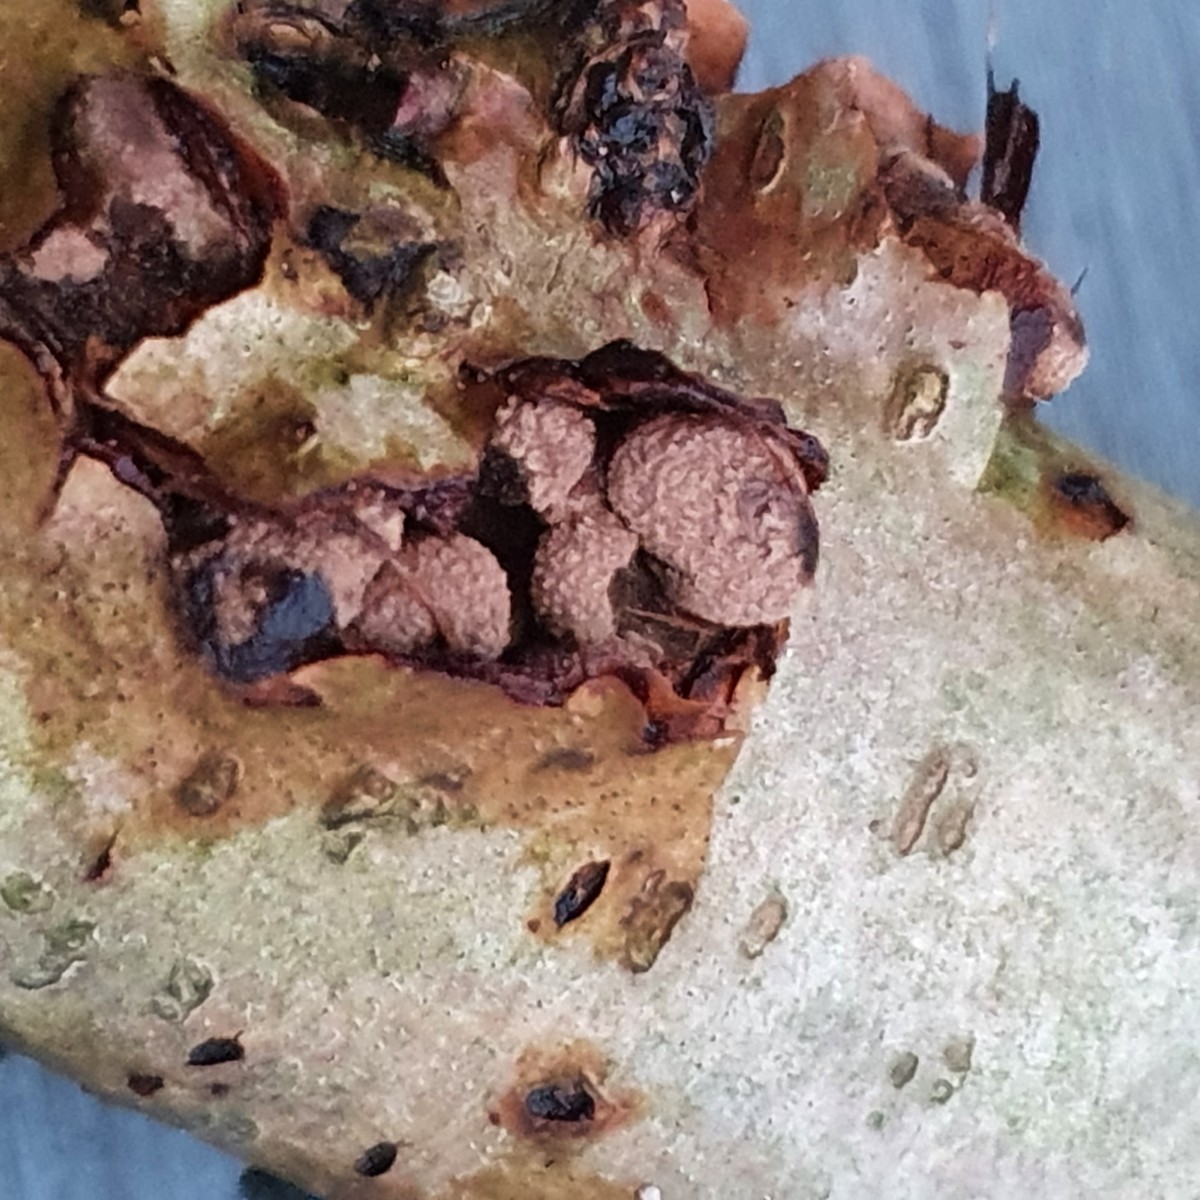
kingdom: Fungi
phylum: Ascomycota
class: Leotiomycetes
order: Helotiales
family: Cenangiaceae
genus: Encoelia
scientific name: Encoelia furfuracea
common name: hassel-læderskive
